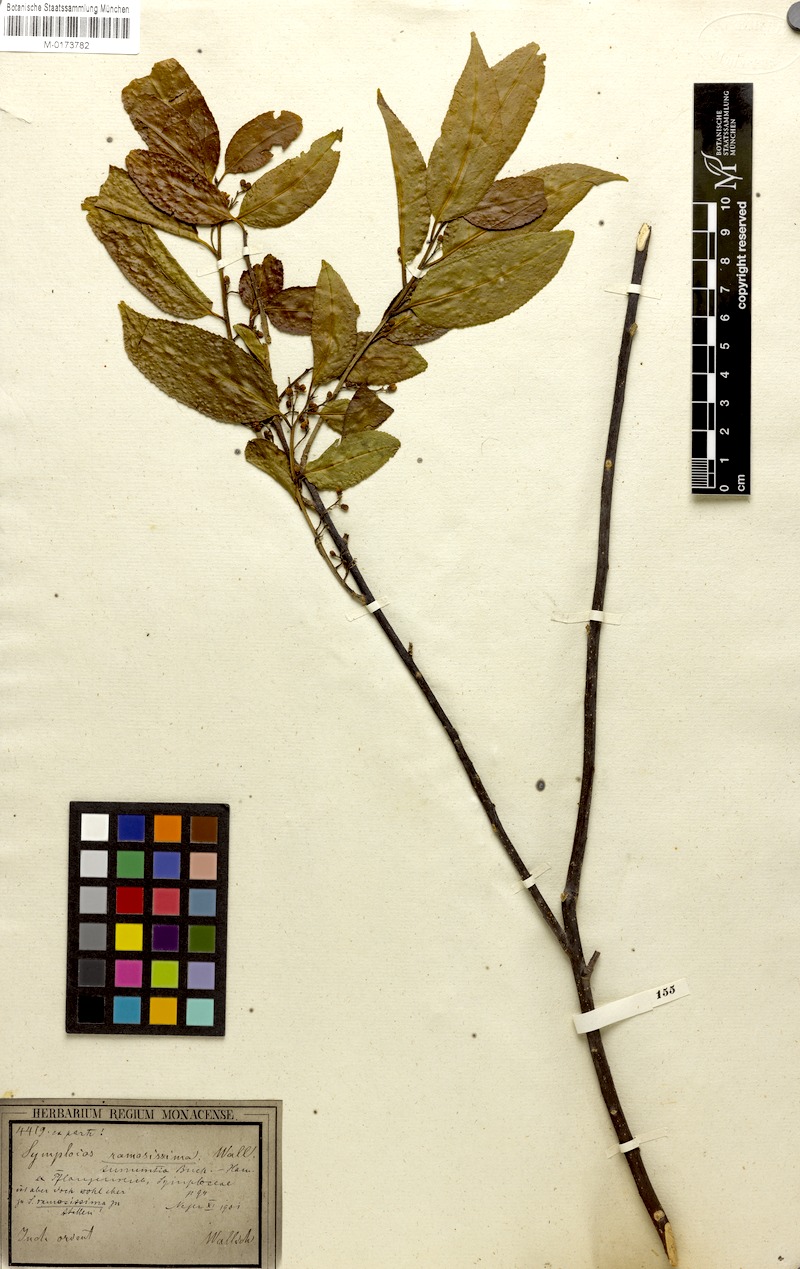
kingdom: Plantae
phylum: Tracheophyta
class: Magnoliopsida
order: Ericales
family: Symplocaceae
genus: Symplocos
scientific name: Symplocos ramosissima
